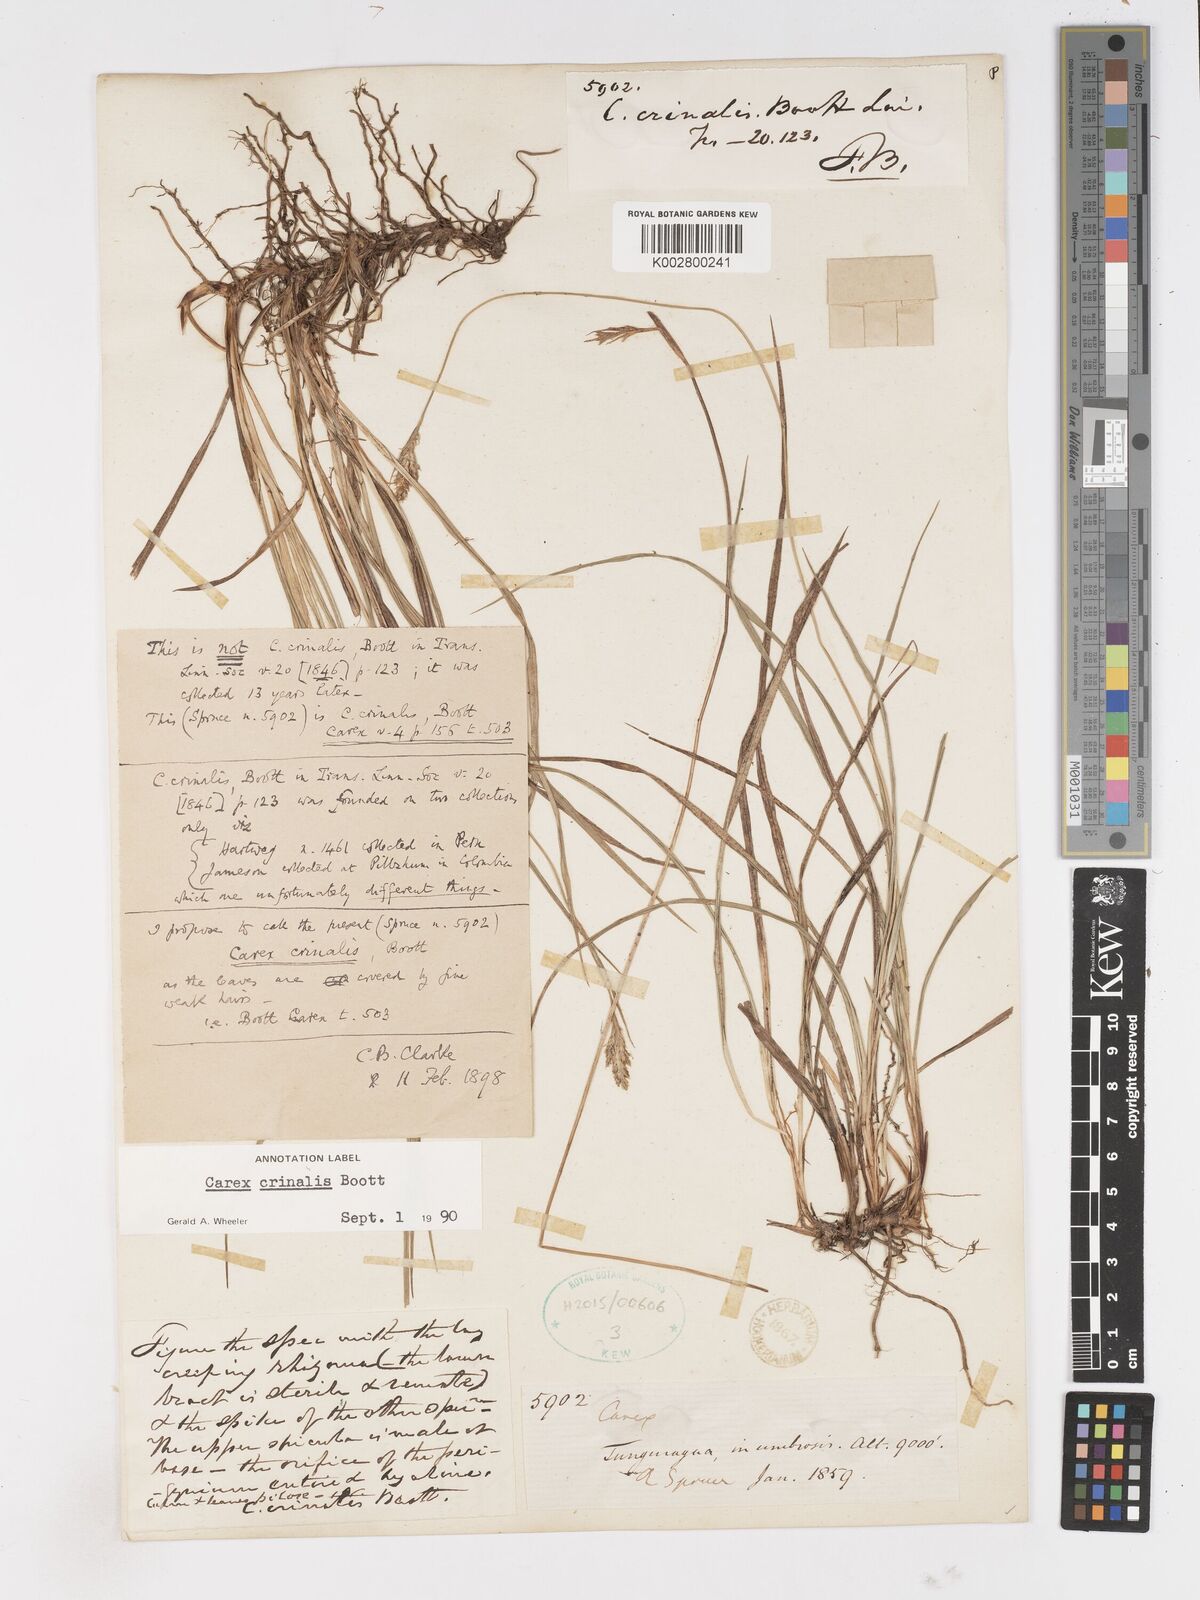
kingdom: Plantae
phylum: Tracheophyta
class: Liliopsida
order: Poales
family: Cyperaceae
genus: Carex
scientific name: Carex
